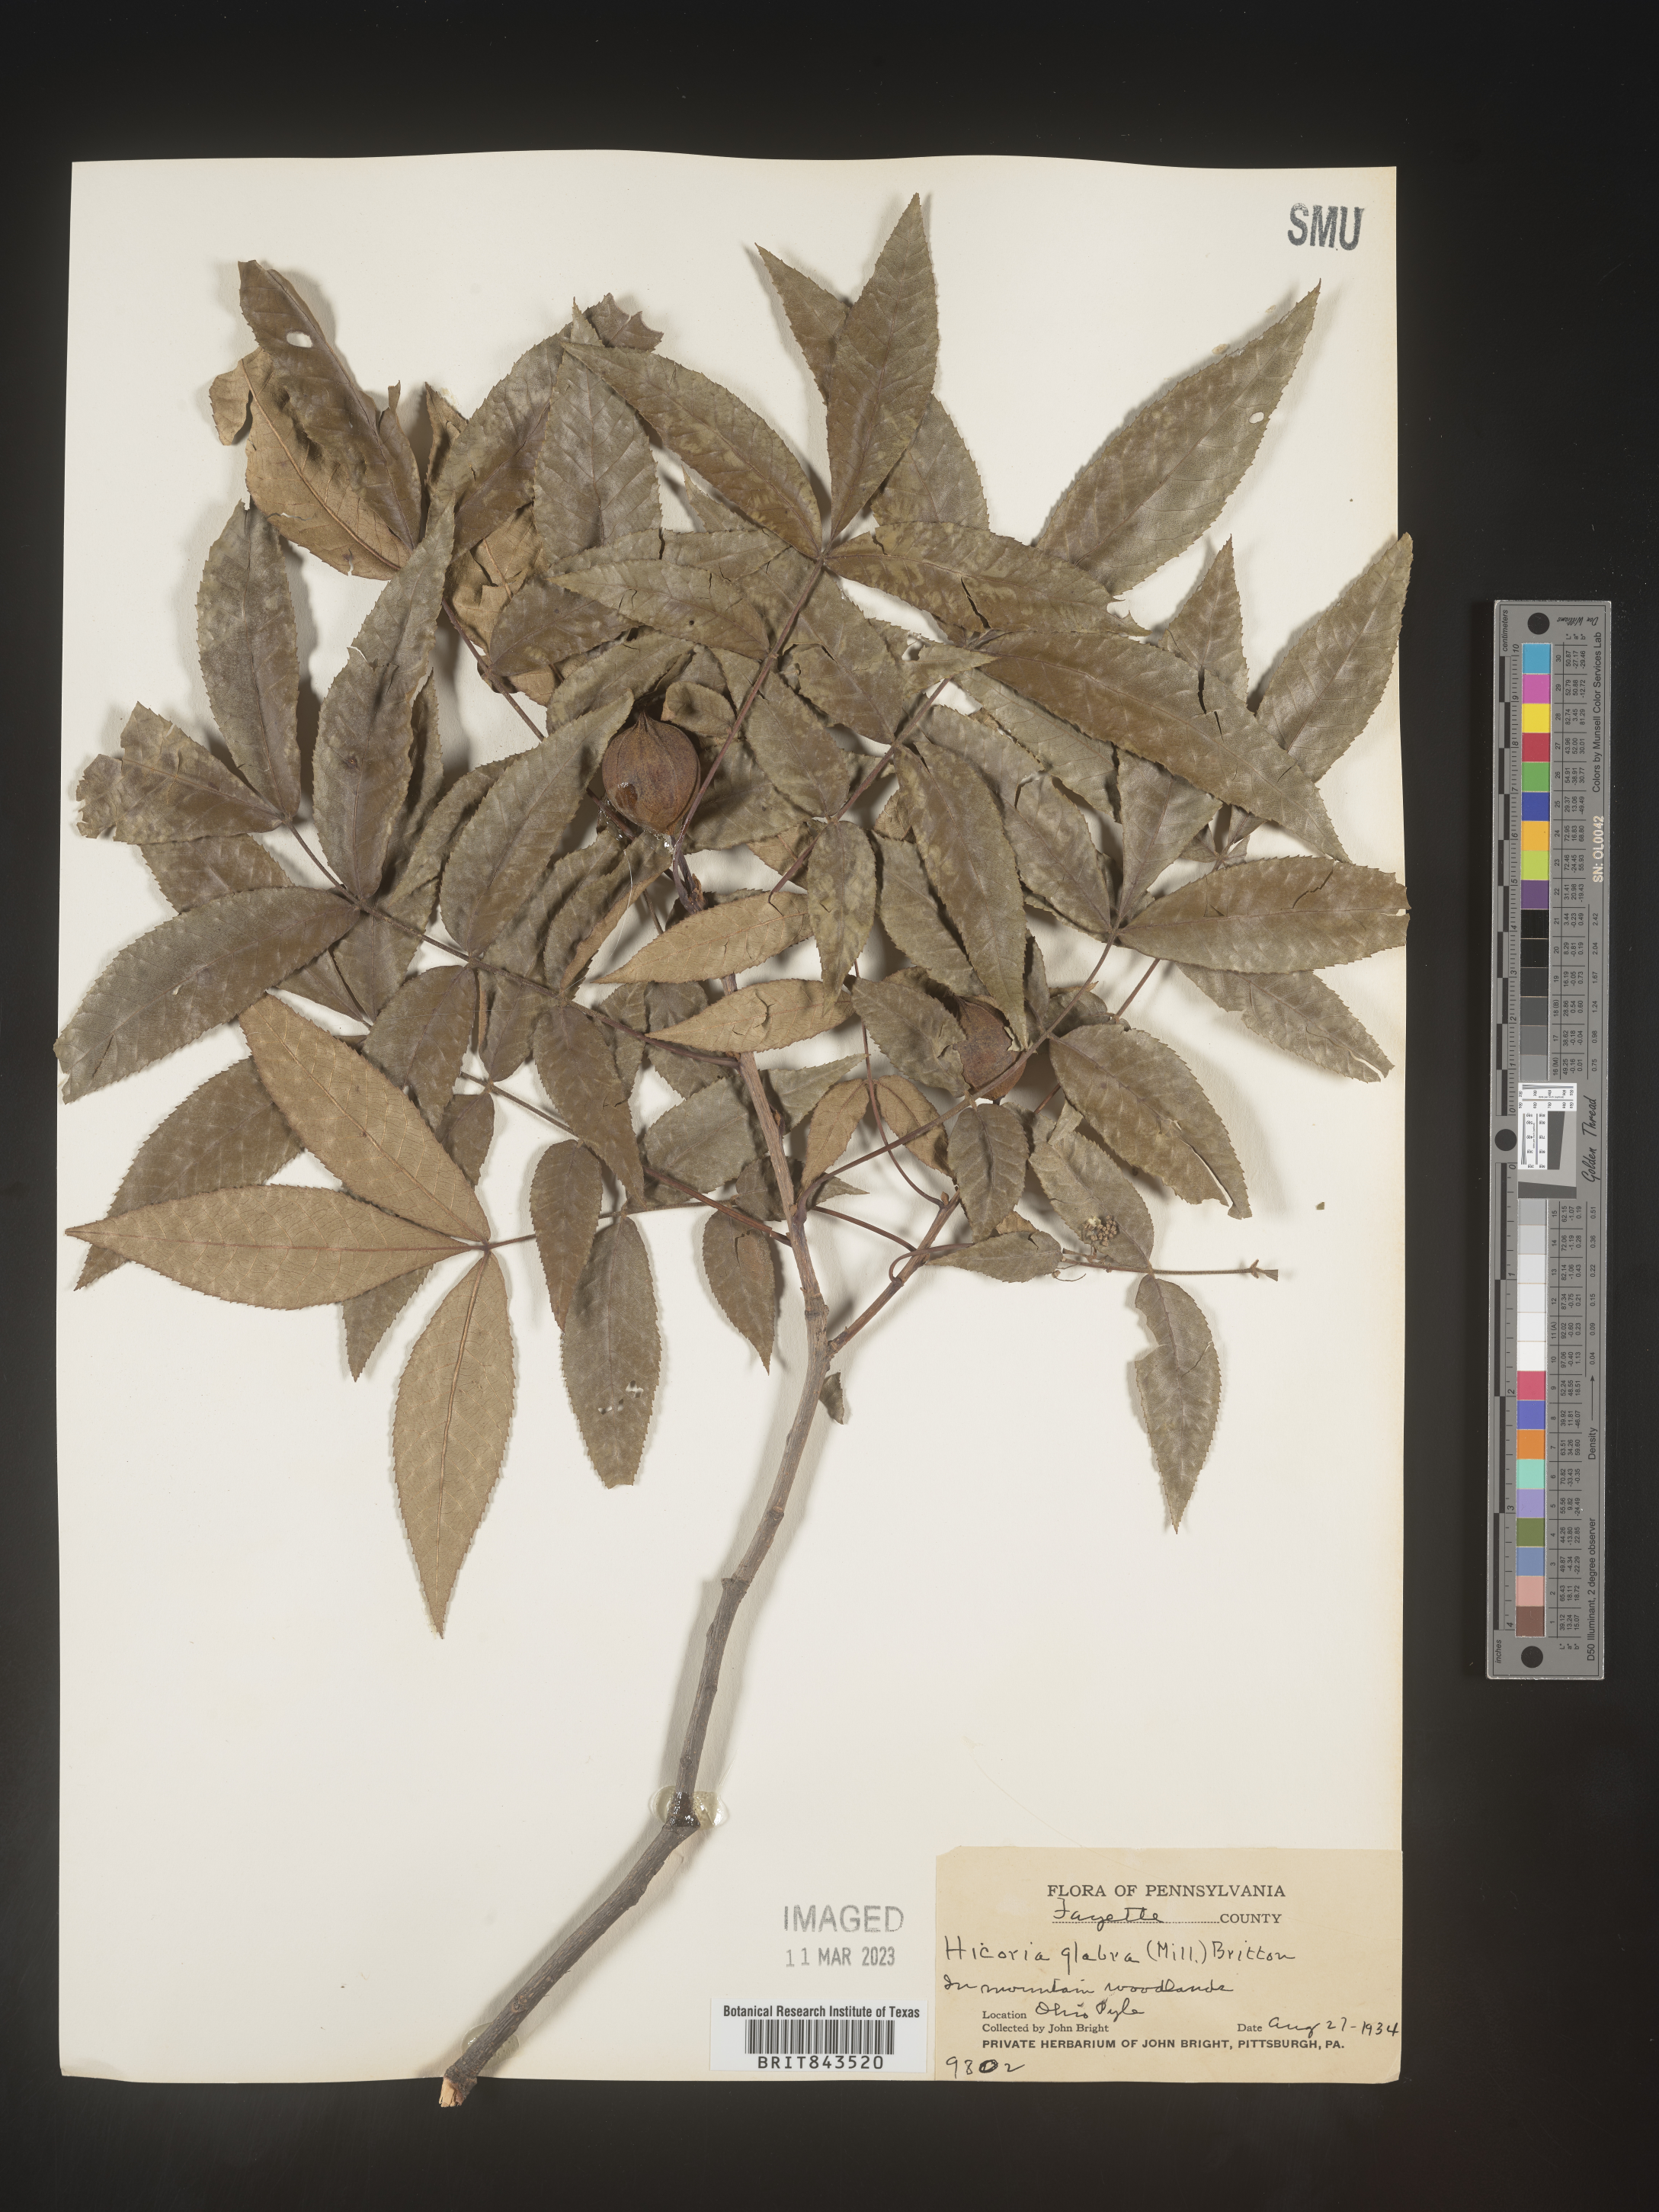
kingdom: Plantae
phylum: Tracheophyta
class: Magnoliopsida
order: Fagales
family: Juglandaceae
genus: Carya
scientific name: Carya glabra
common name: Pignut hickory
